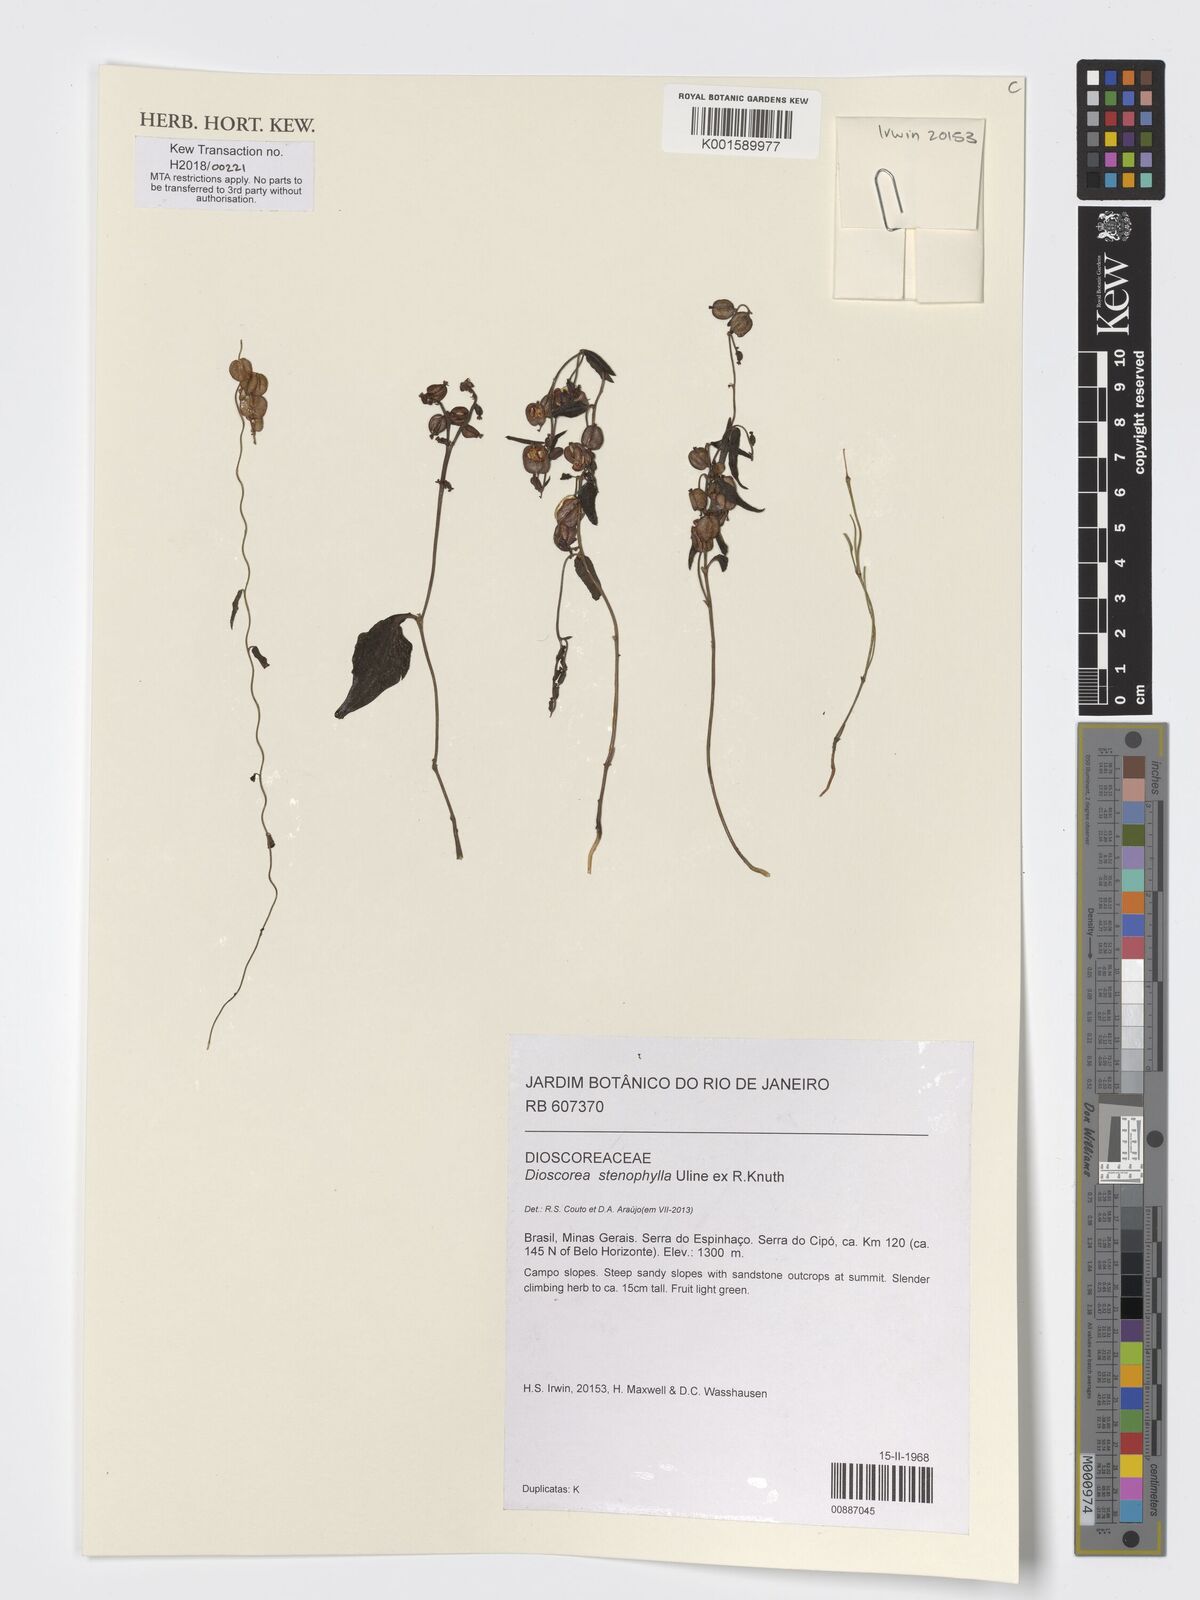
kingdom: Plantae
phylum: Tracheophyta
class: Liliopsida
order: Dioscoreales
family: Dioscoreaceae
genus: Dioscorea
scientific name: Dioscorea stenophylla
